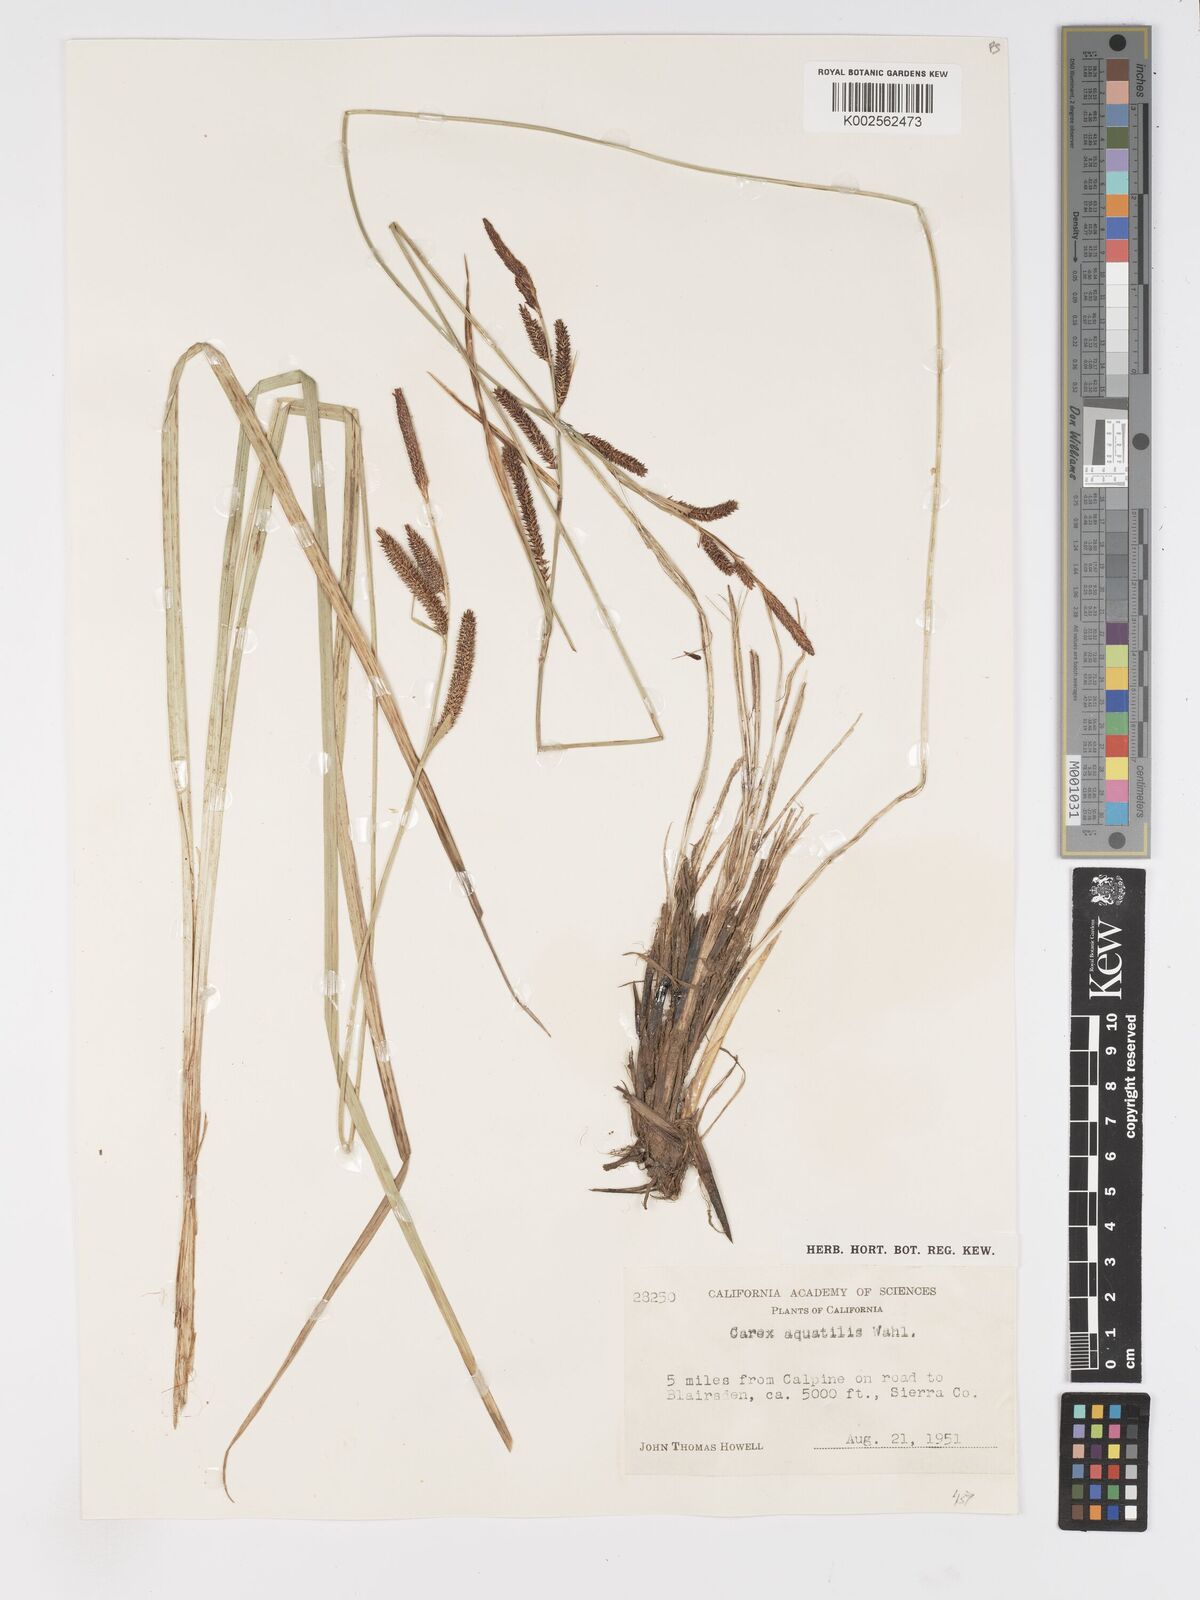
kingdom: Plantae
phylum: Tracheophyta
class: Liliopsida
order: Poales
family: Cyperaceae
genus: Carex
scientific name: Carex
